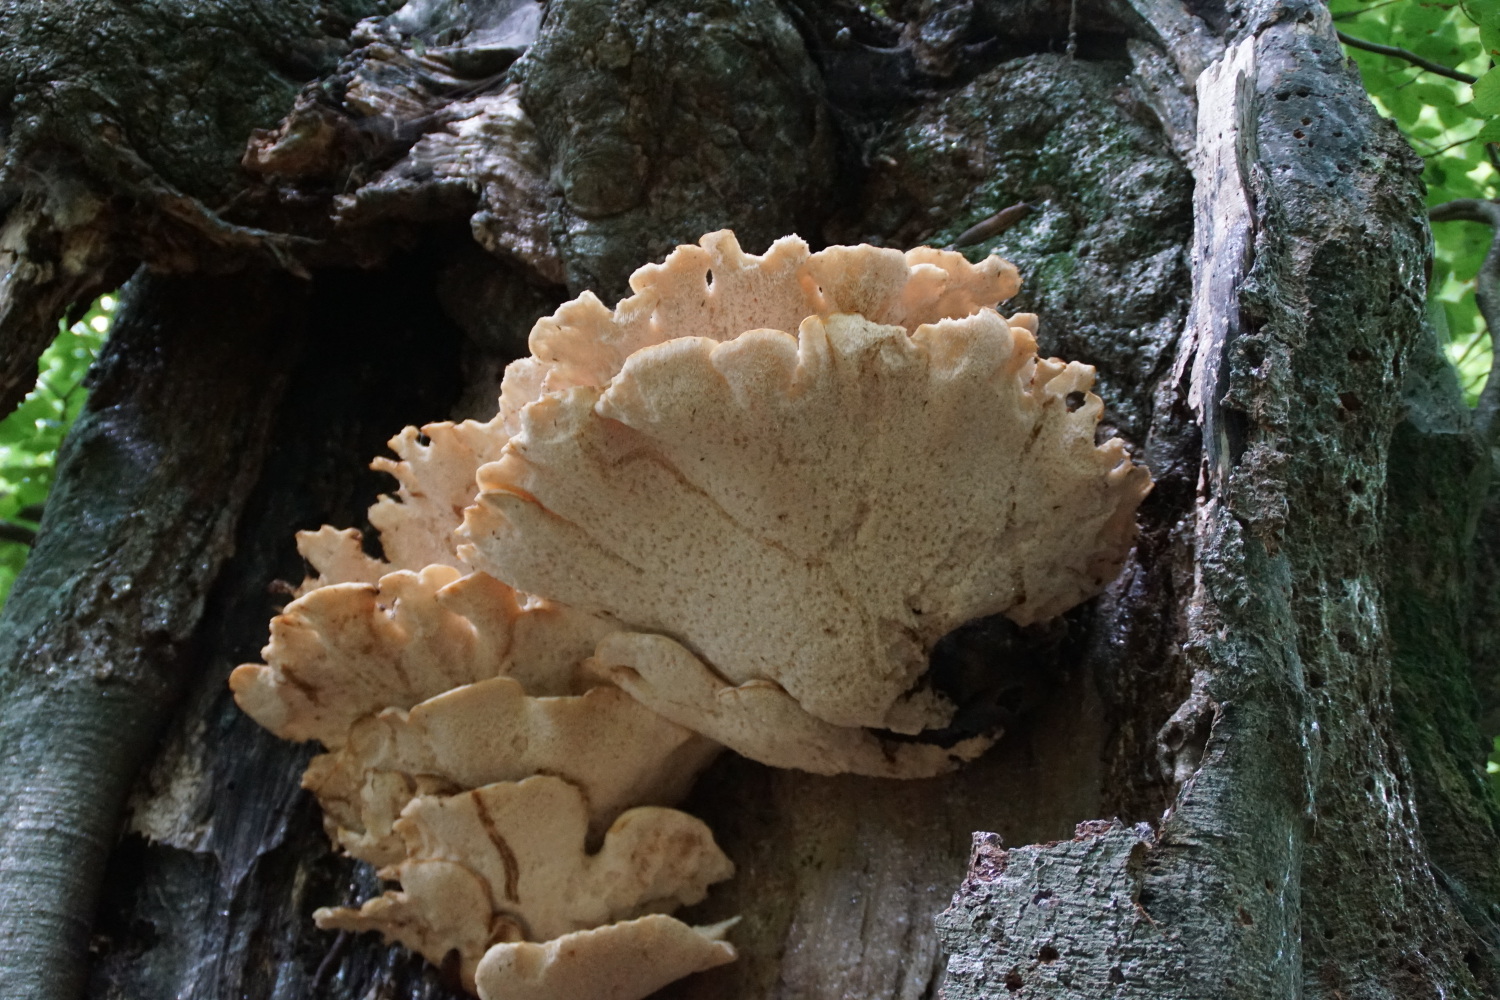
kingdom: Fungi
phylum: Basidiomycota
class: Agaricomycetes
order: Polyporales
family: Laetiporaceae
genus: Laetiporus
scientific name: Laetiporus sulphureus
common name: svovlporesvamp
